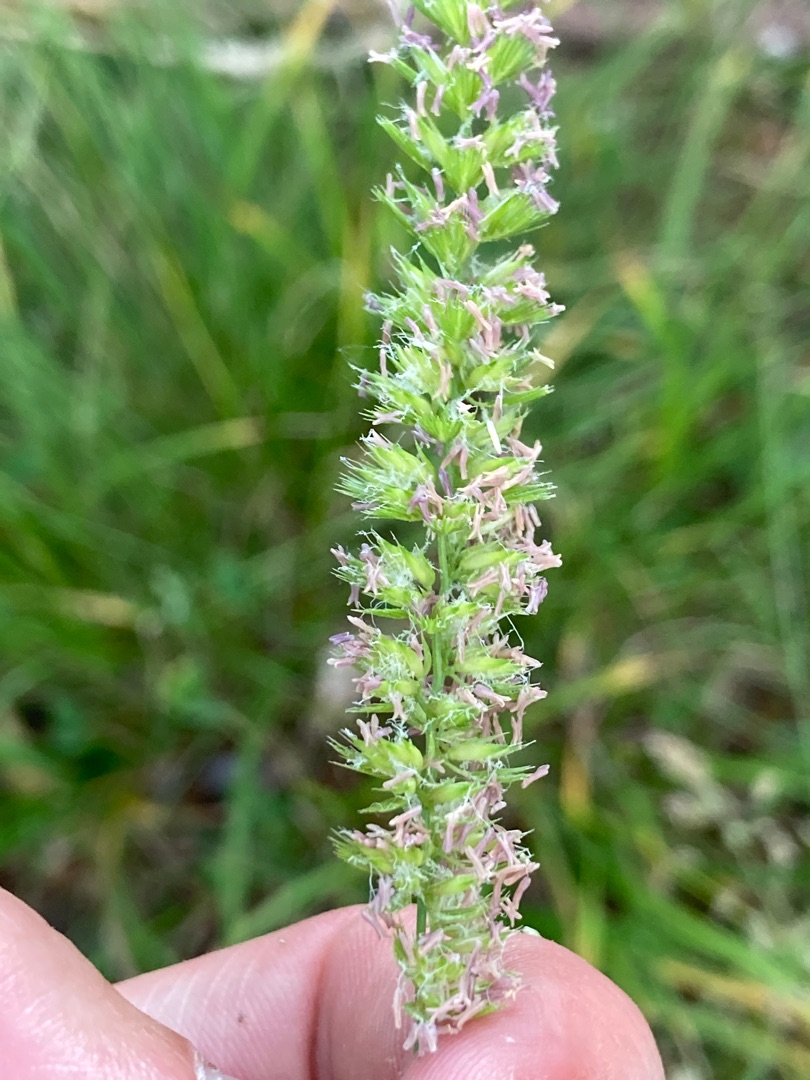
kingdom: Plantae
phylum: Tracheophyta
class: Liliopsida
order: Poales
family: Poaceae
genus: Cynosurus
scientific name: Cynosurus cristatus
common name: Kamgræs
